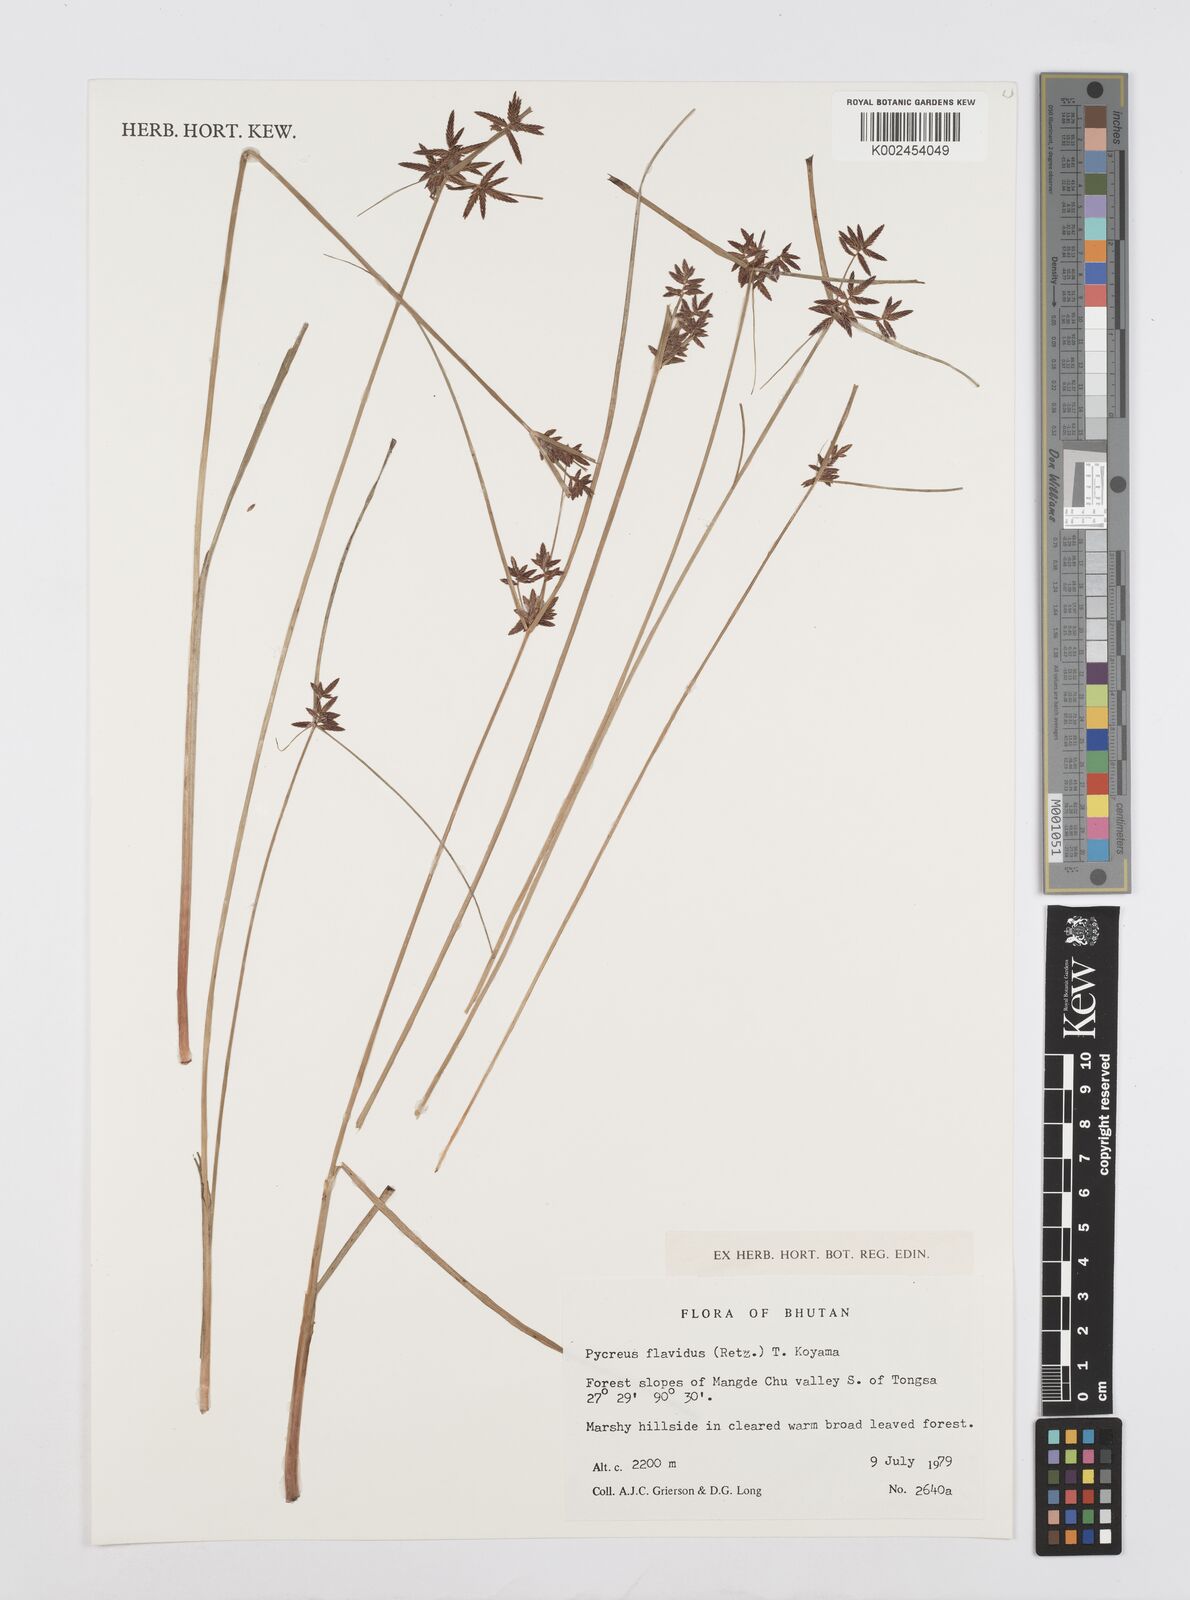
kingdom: Plantae
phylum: Tracheophyta
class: Liliopsida
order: Poales
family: Cyperaceae
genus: Cyperus
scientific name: Cyperus flavidus
